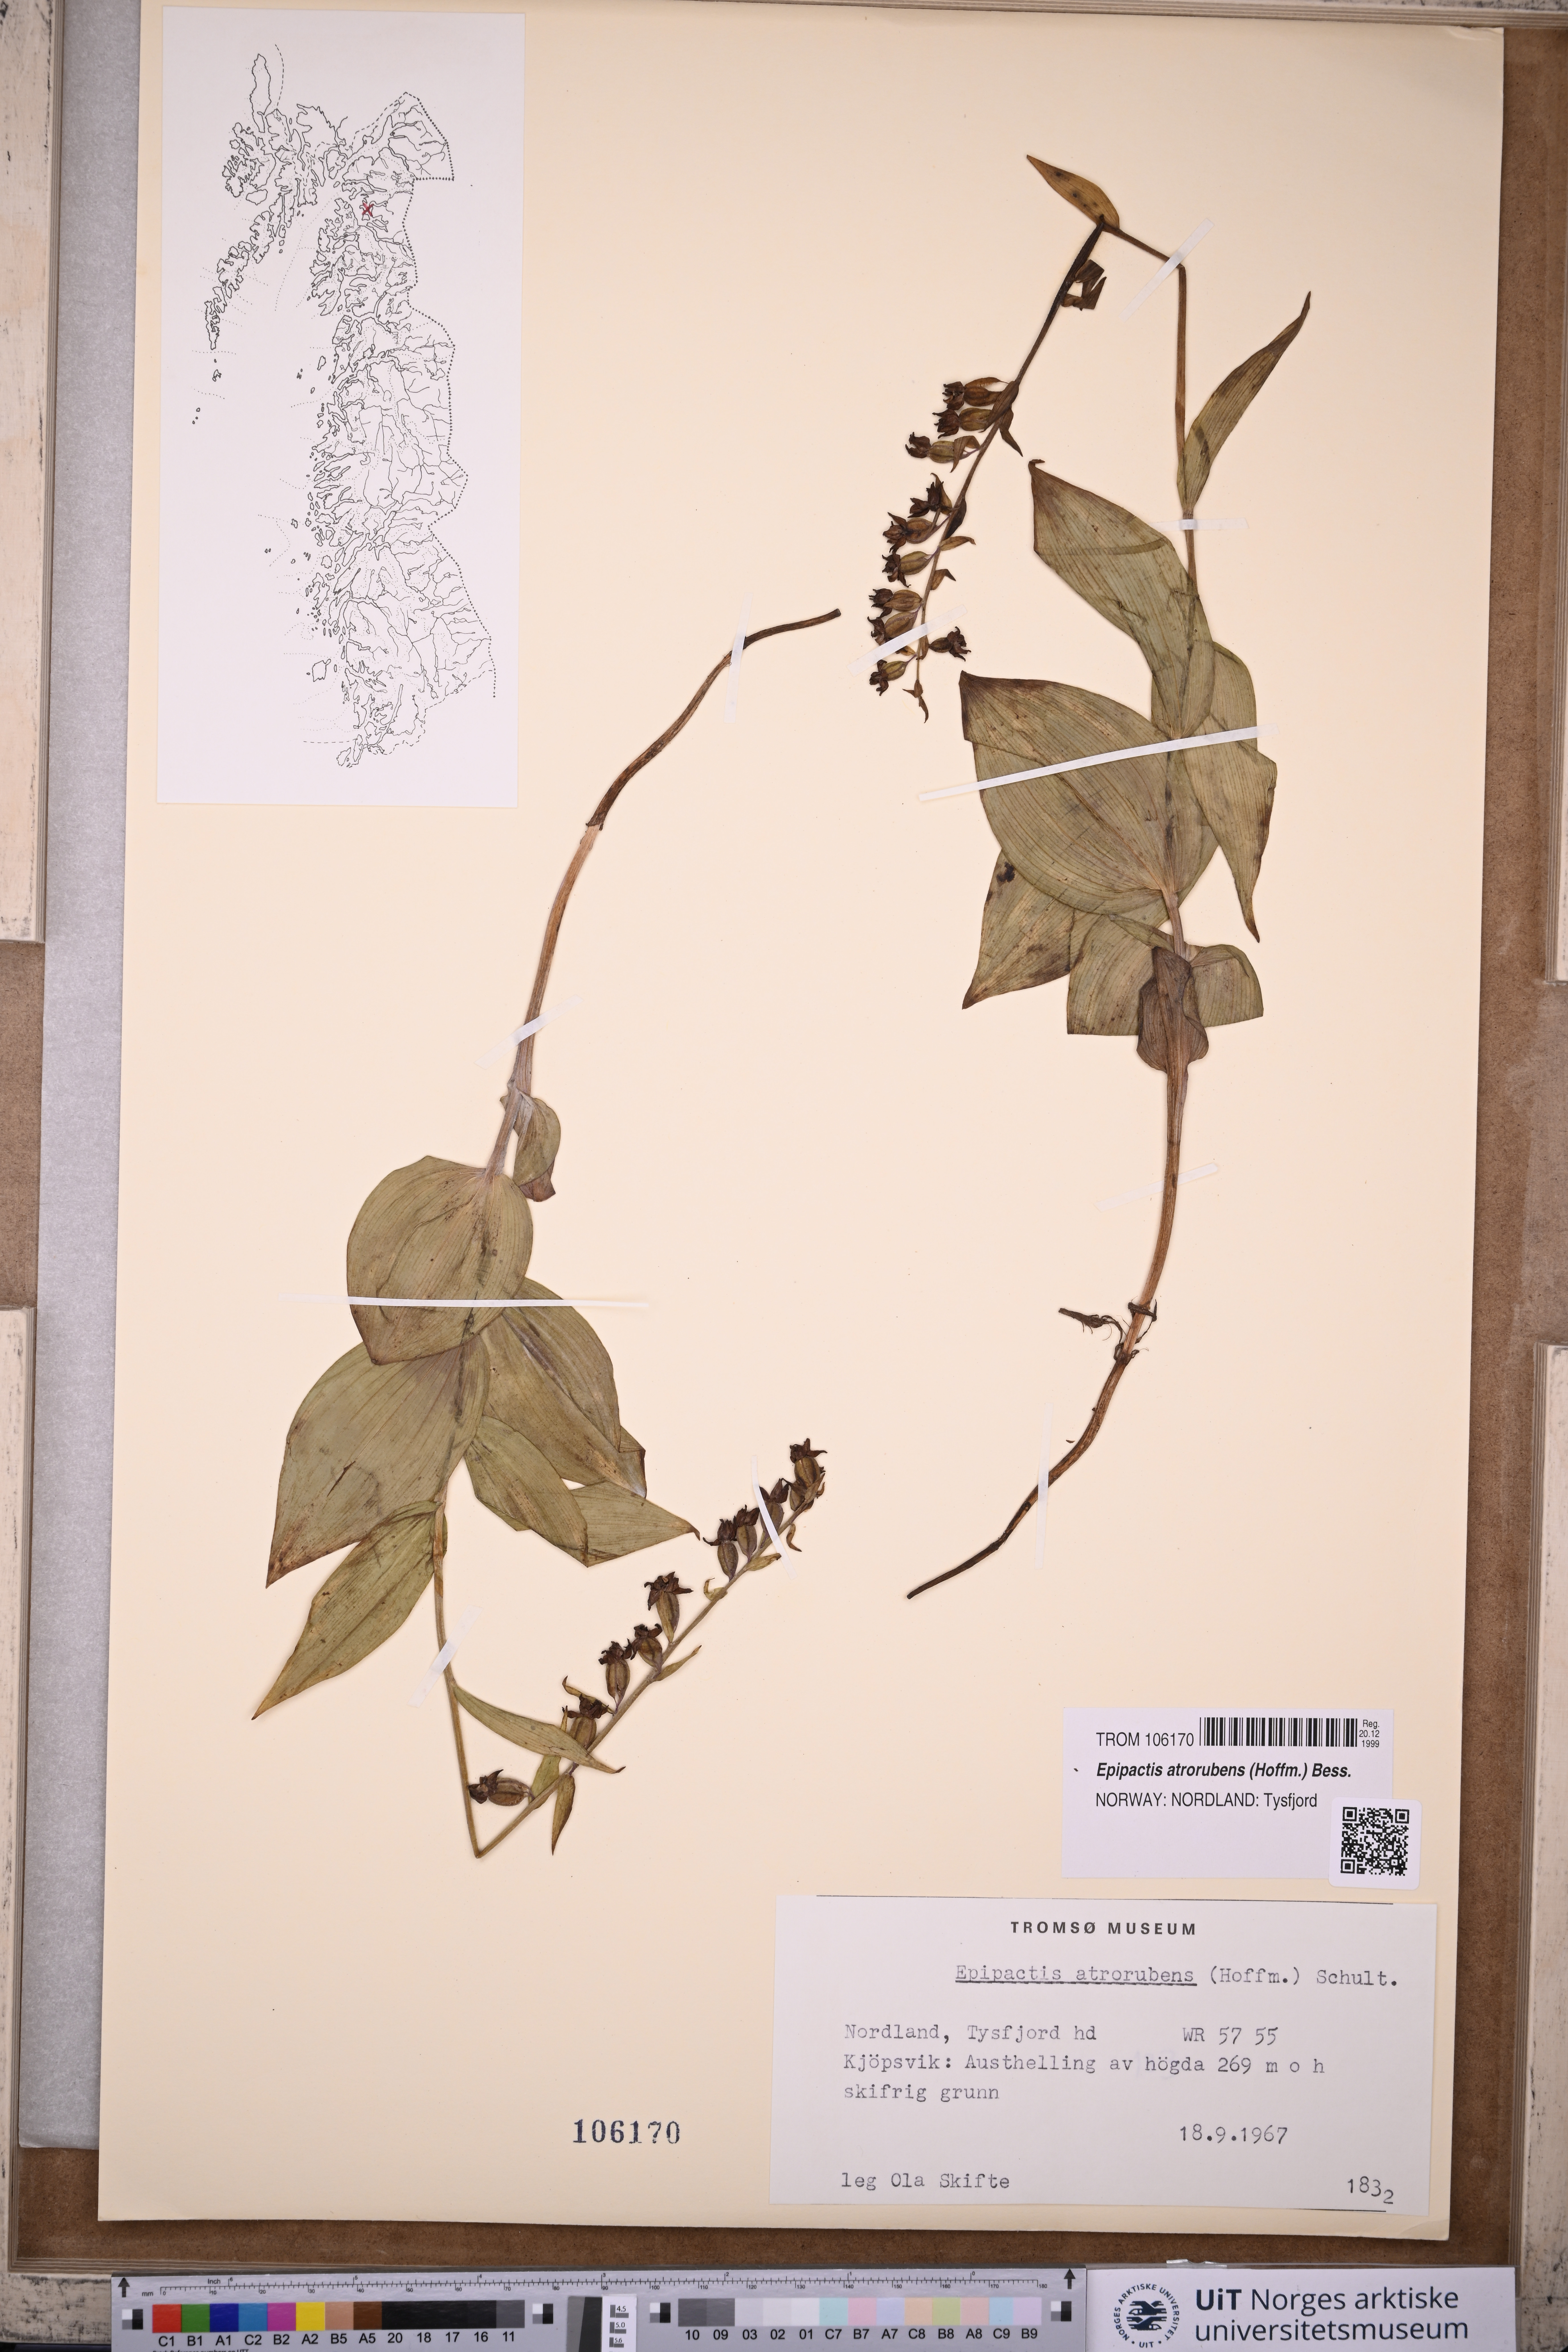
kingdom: Plantae
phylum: Tracheophyta
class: Liliopsida
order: Asparagales
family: Orchidaceae
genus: Epipactis
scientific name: Epipactis atrorubens
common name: Dark-red helleborine
